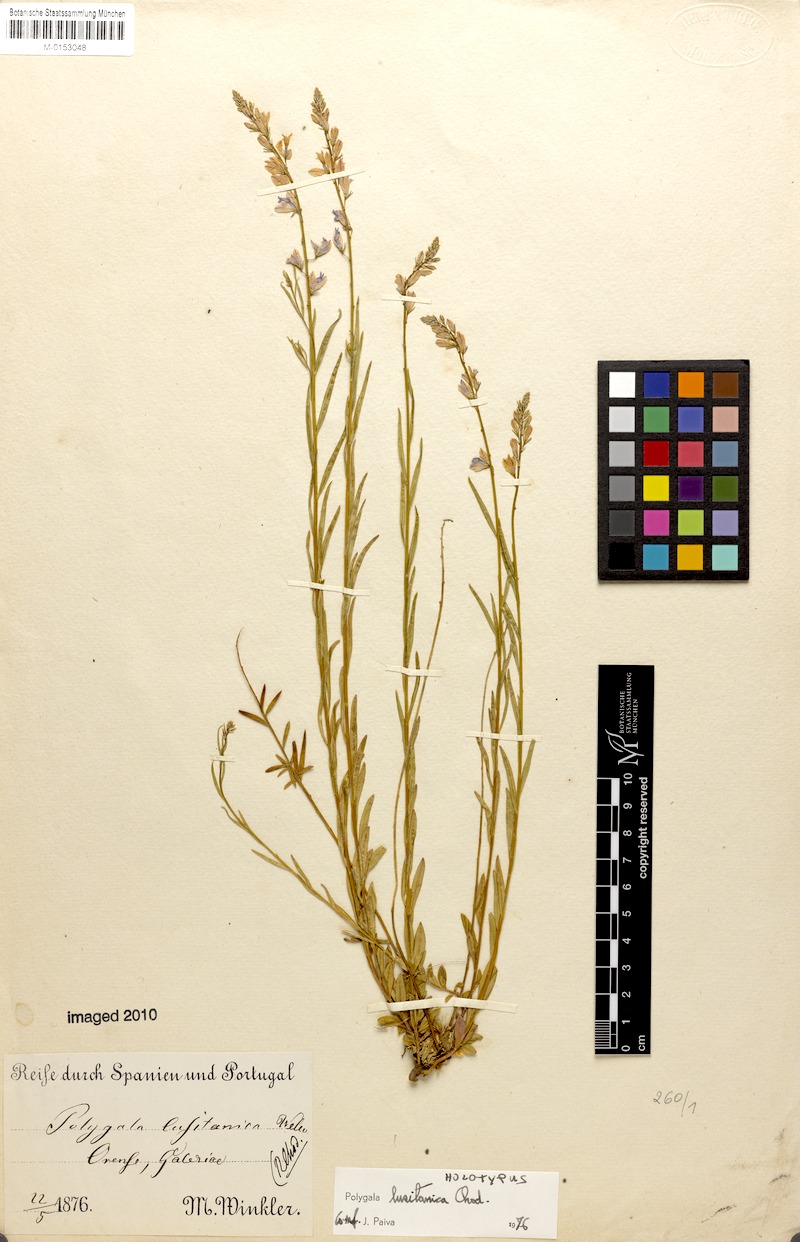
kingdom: Plantae
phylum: Tracheophyta
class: Magnoliopsida
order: Fabales
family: Polygalaceae
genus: Polygala
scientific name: Polygala vulgaris
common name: Common milkwort
